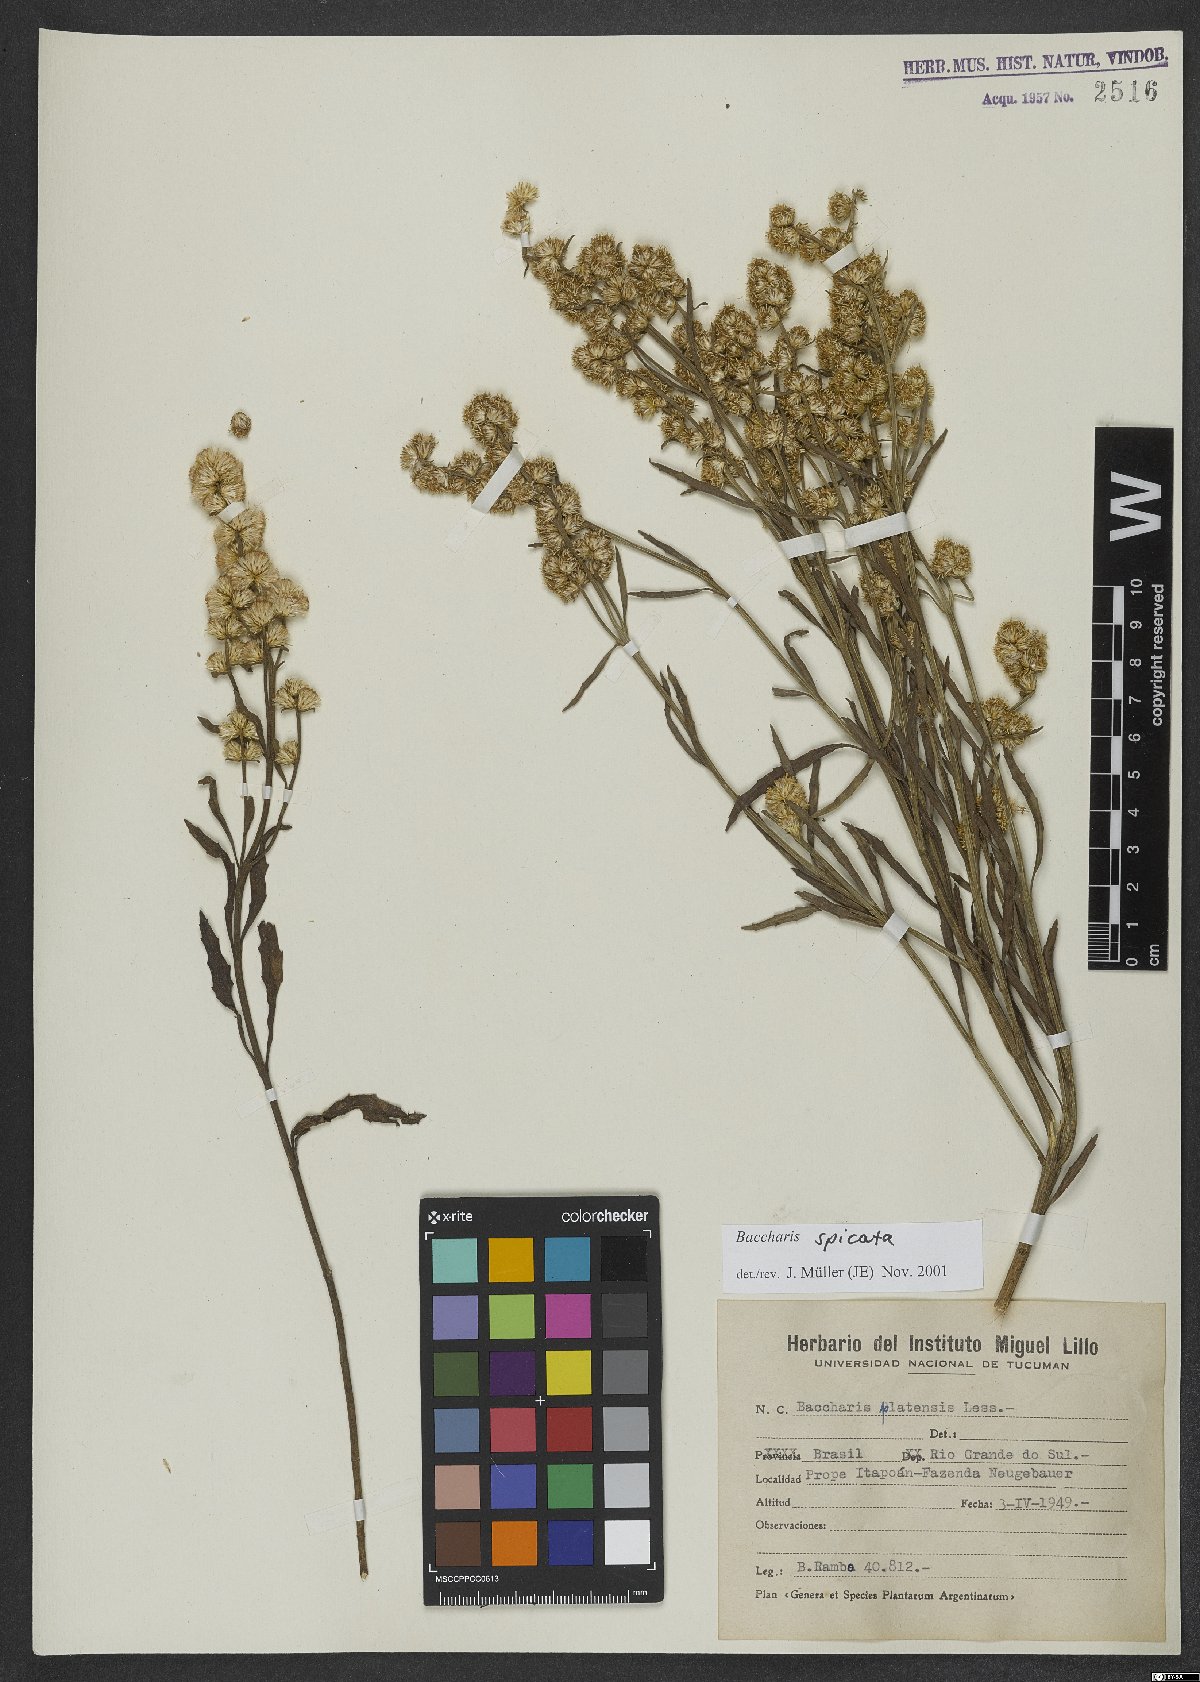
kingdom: Plantae
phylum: Tracheophyta
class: Magnoliopsida
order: Asterales
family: Asteraceae
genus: Baccharis
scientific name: Baccharis spicata
